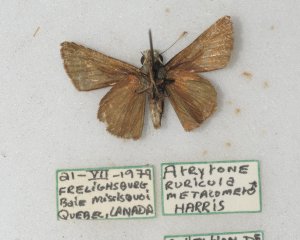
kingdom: Animalia
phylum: Arthropoda
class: Insecta
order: Lepidoptera
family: Hesperiidae
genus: Euphyes
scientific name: Euphyes vestris
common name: Dun Skipper
